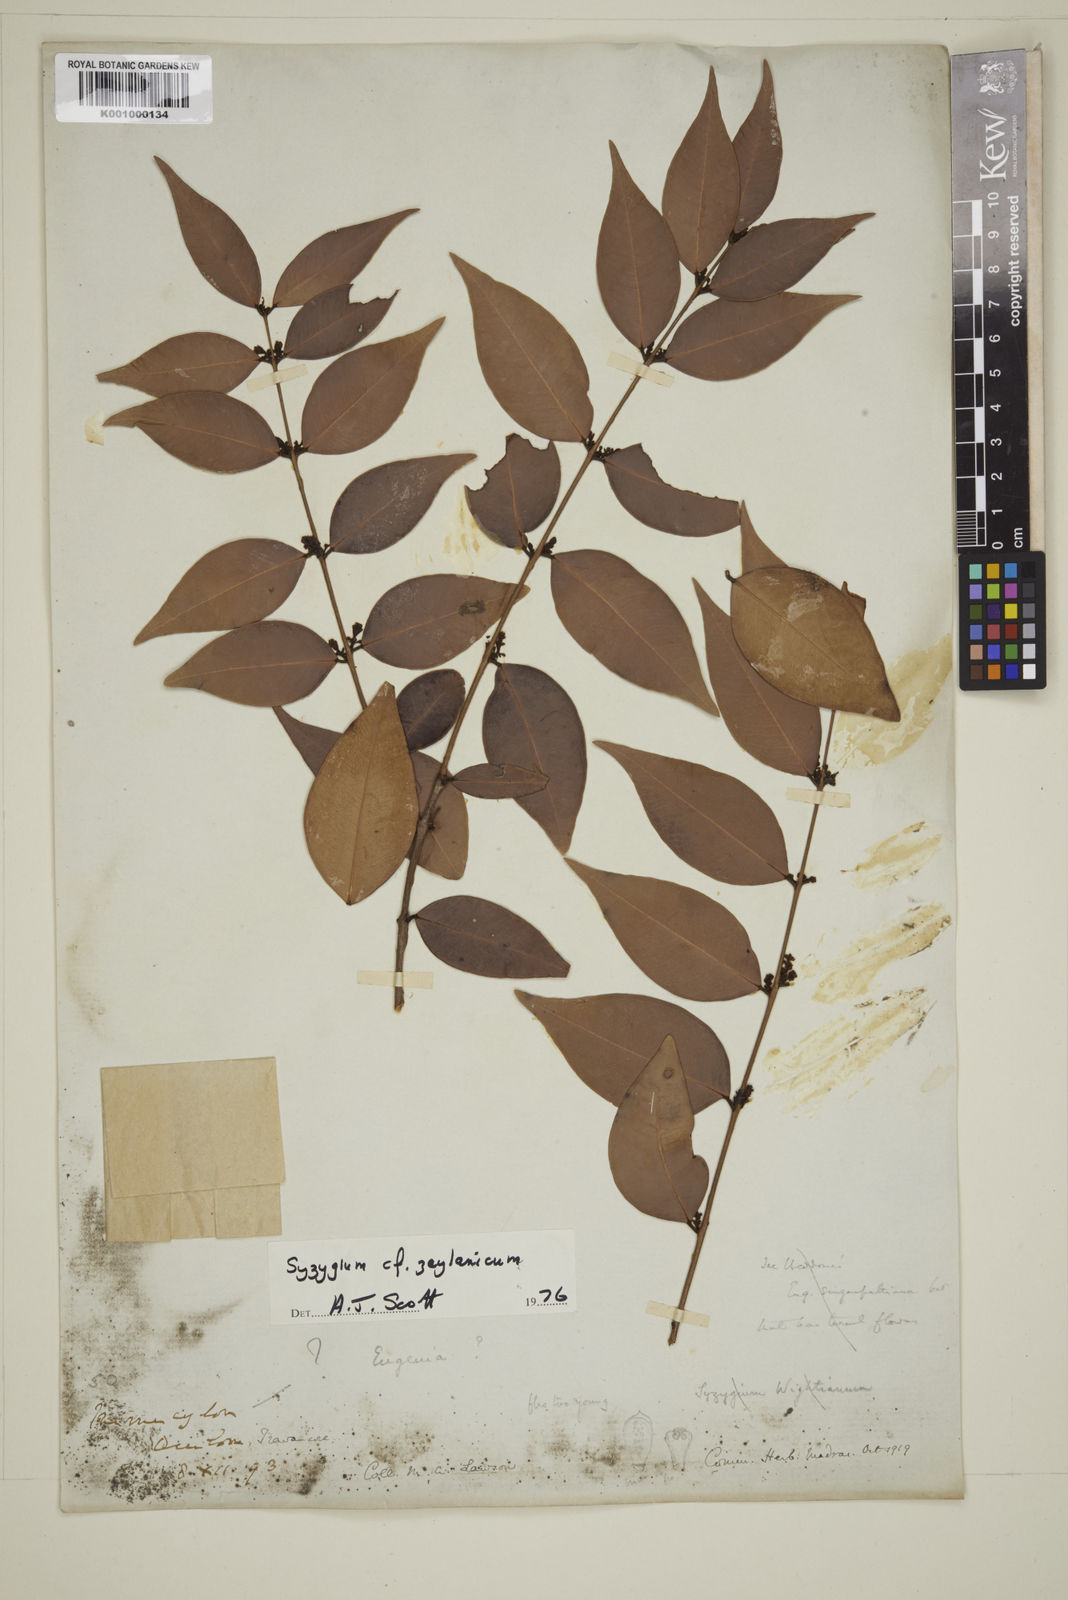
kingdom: Plantae
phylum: Tracheophyta
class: Magnoliopsida
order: Myrtales
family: Myrtaceae
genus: Eugenia
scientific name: Eugenia
